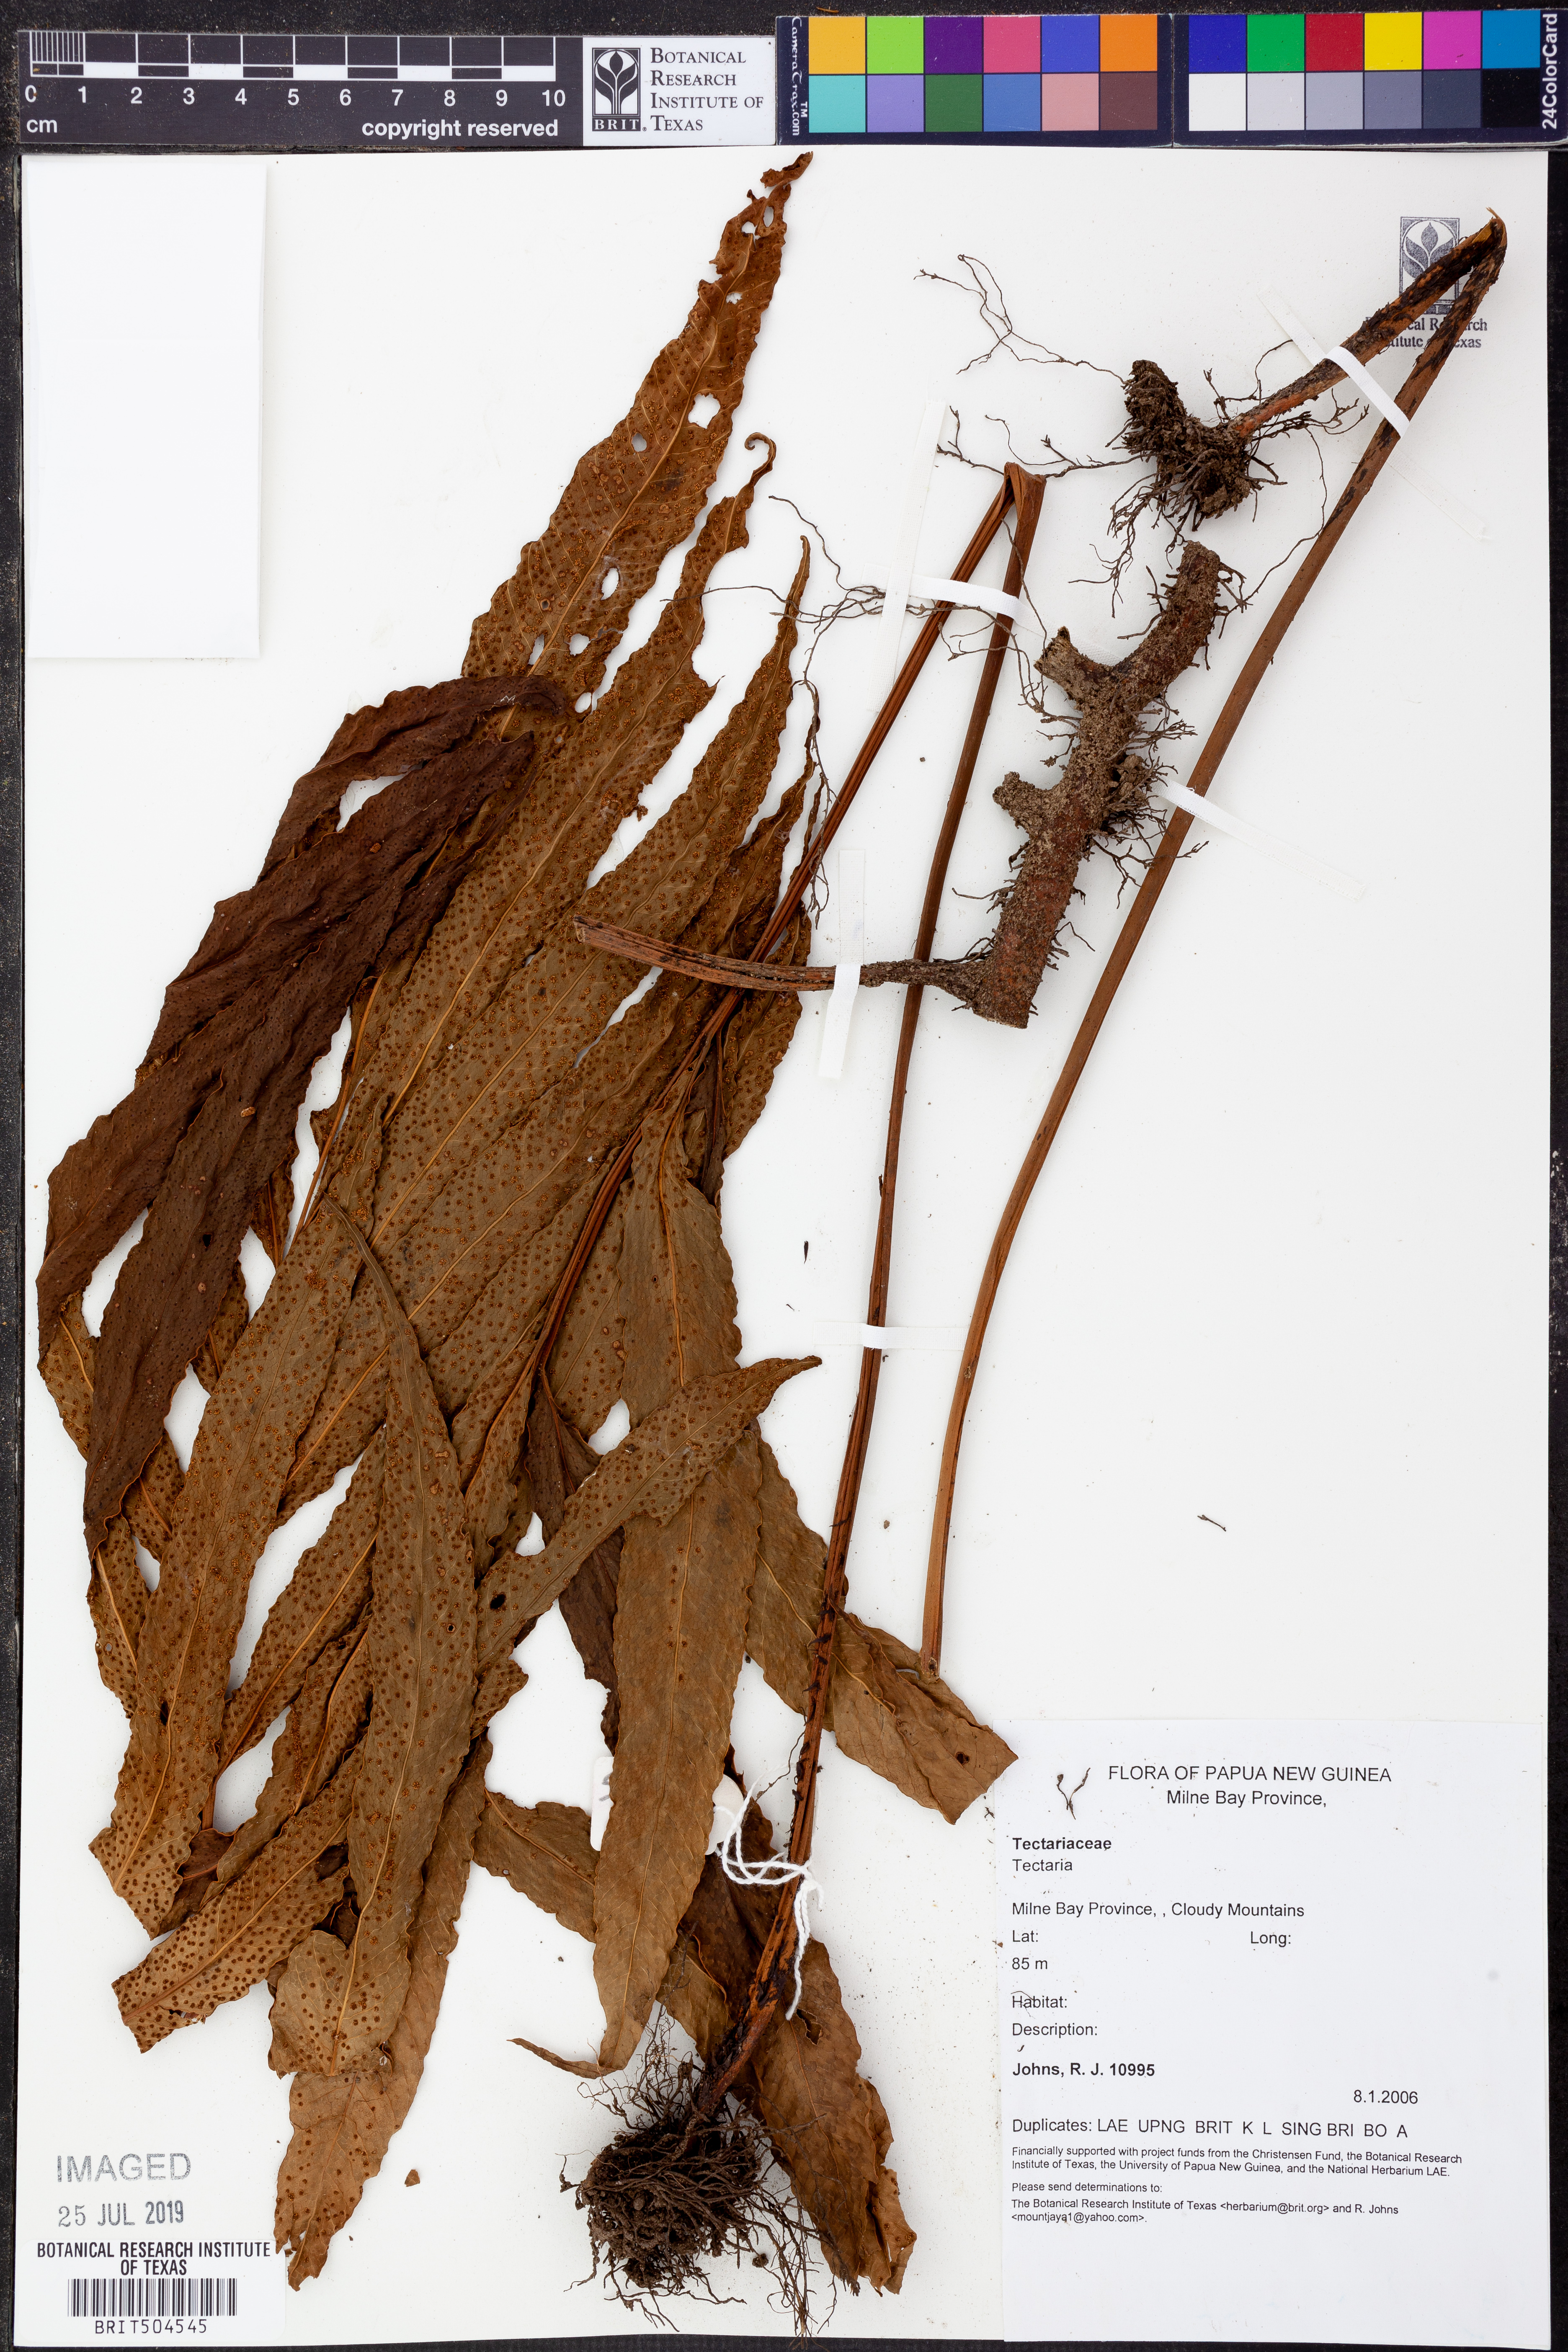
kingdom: Plantae
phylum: Tracheophyta
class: Polypodiopsida
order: Polypodiales
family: Tectariaceae
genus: Tectaria
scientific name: Tectaria
